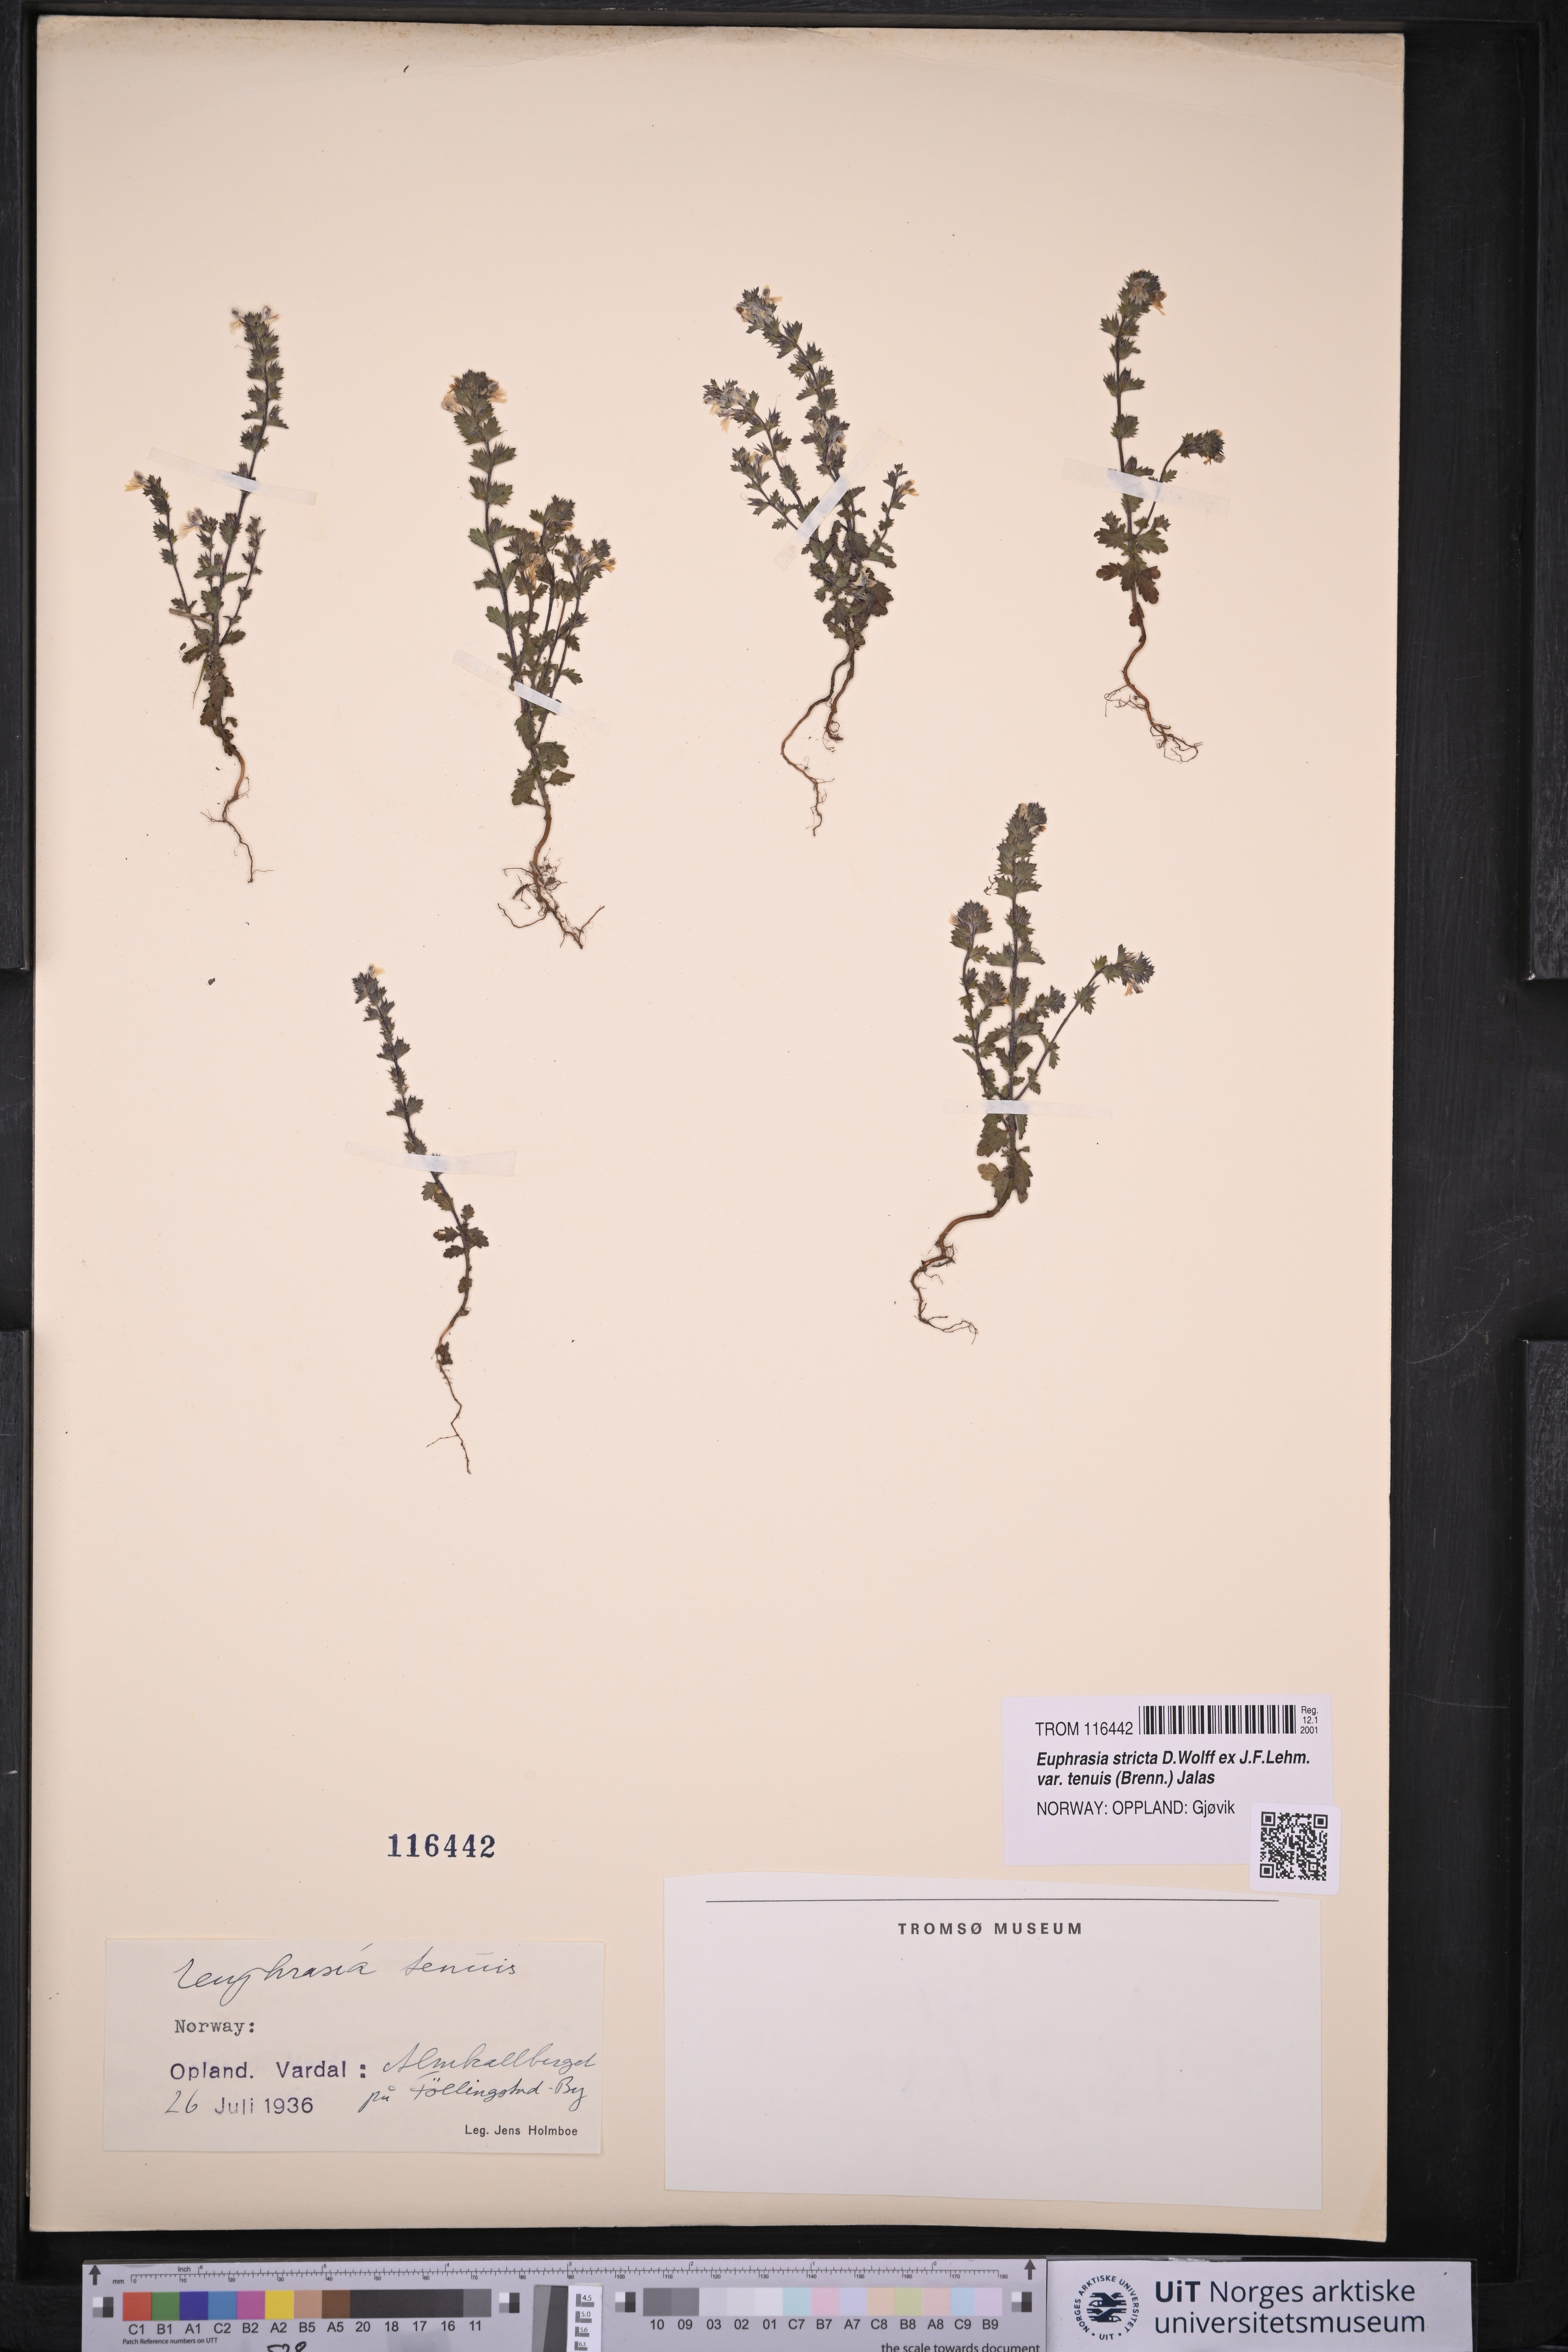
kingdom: Plantae
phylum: Tracheophyta
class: Magnoliopsida
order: Lamiales
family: Orobanchaceae
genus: Euphrasia
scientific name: Euphrasia vernalis
